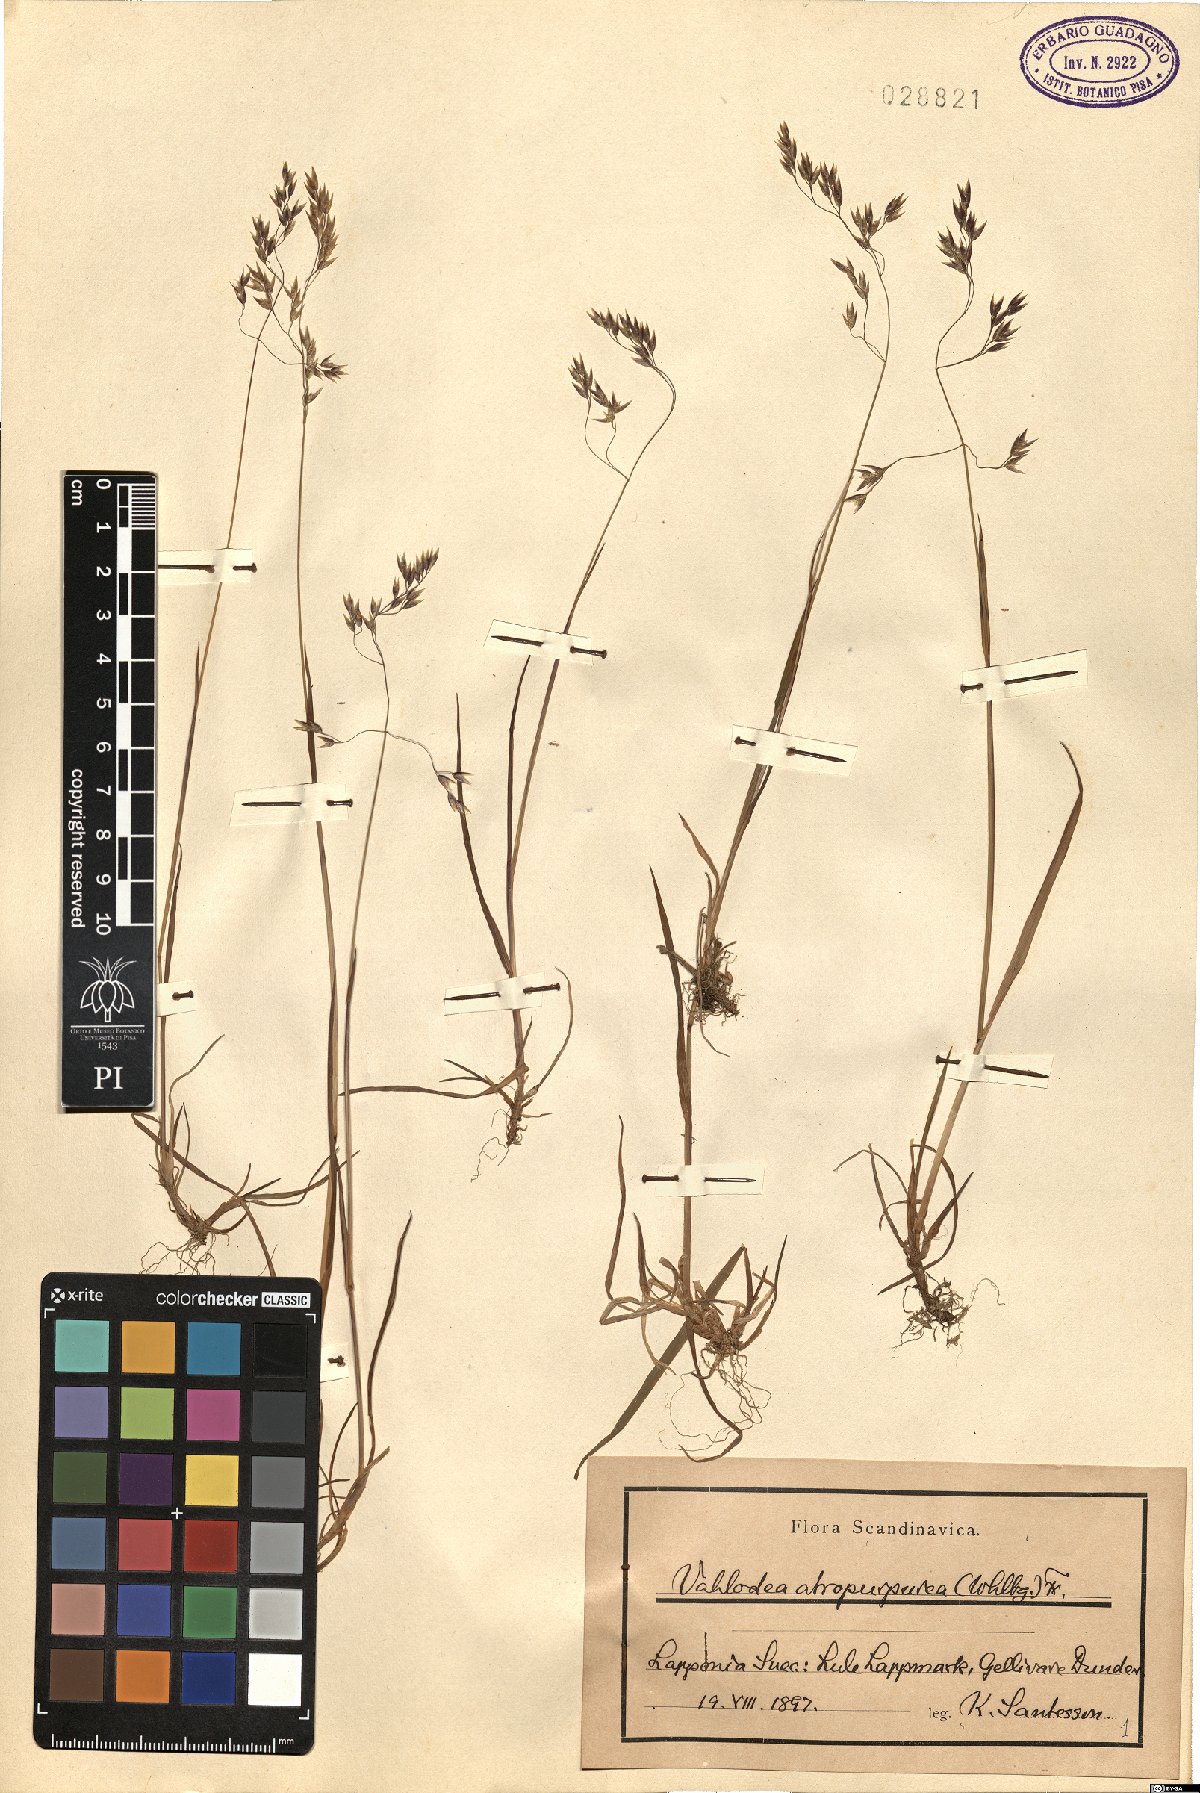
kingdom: Plantae
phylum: Tracheophyta
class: Liliopsida
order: Poales
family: Poaceae
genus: Vahlodea
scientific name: Vahlodea atropurpurea
